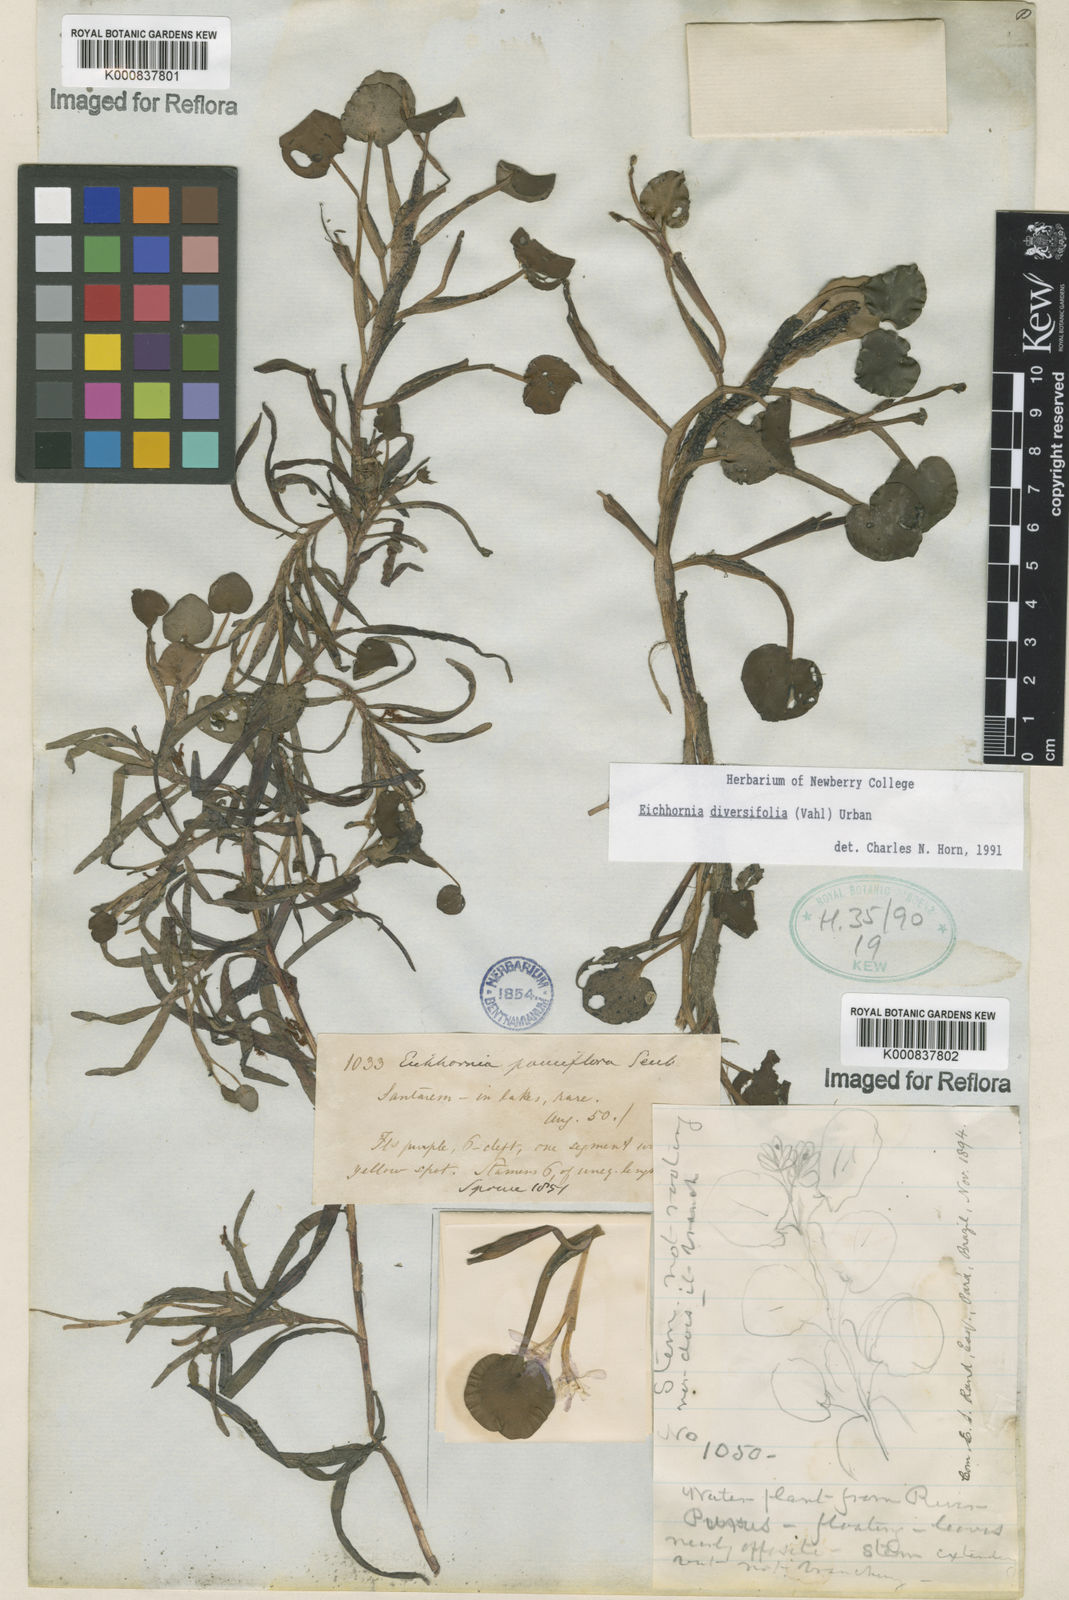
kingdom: Plantae
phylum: Tracheophyta
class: Liliopsida
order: Commelinales
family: Pontederiaceae
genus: Pontederia
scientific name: Pontederia diversifolia
